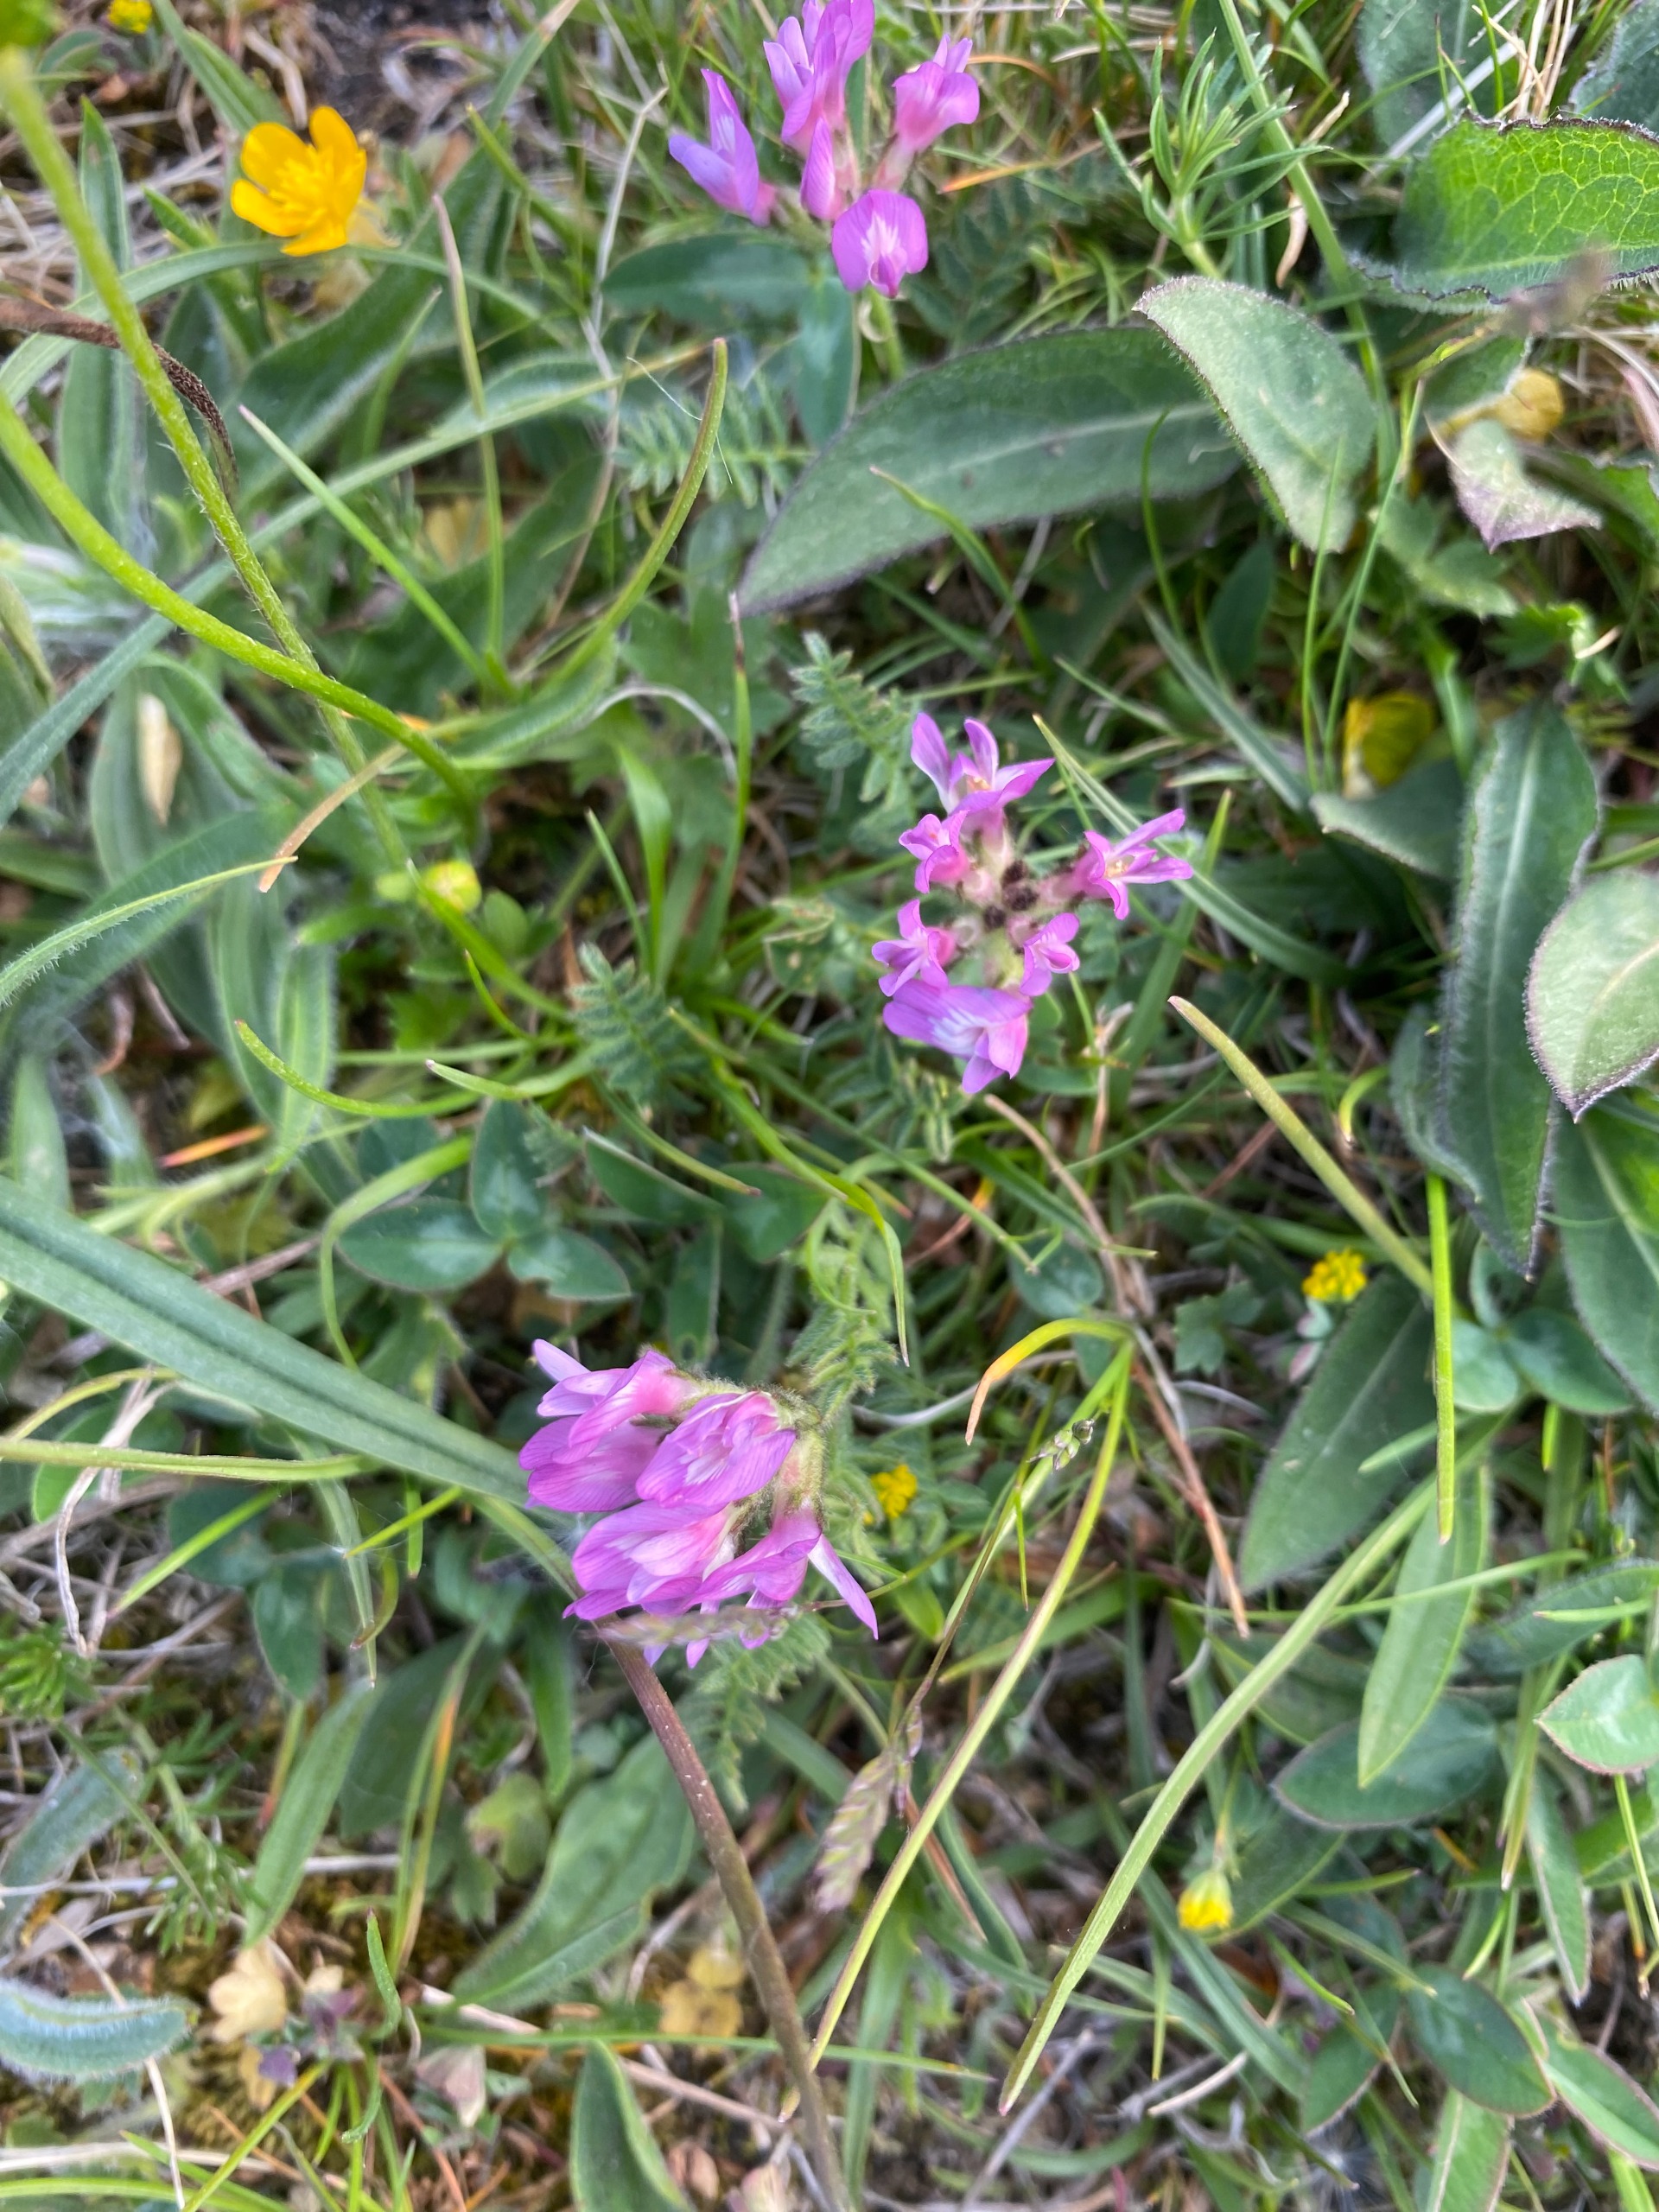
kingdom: Plantae
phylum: Tracheophyta
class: Magnoliopsida
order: Fabales
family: Fabaceae
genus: Astragalus
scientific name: Astragalus danicus
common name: Dansk astragel
